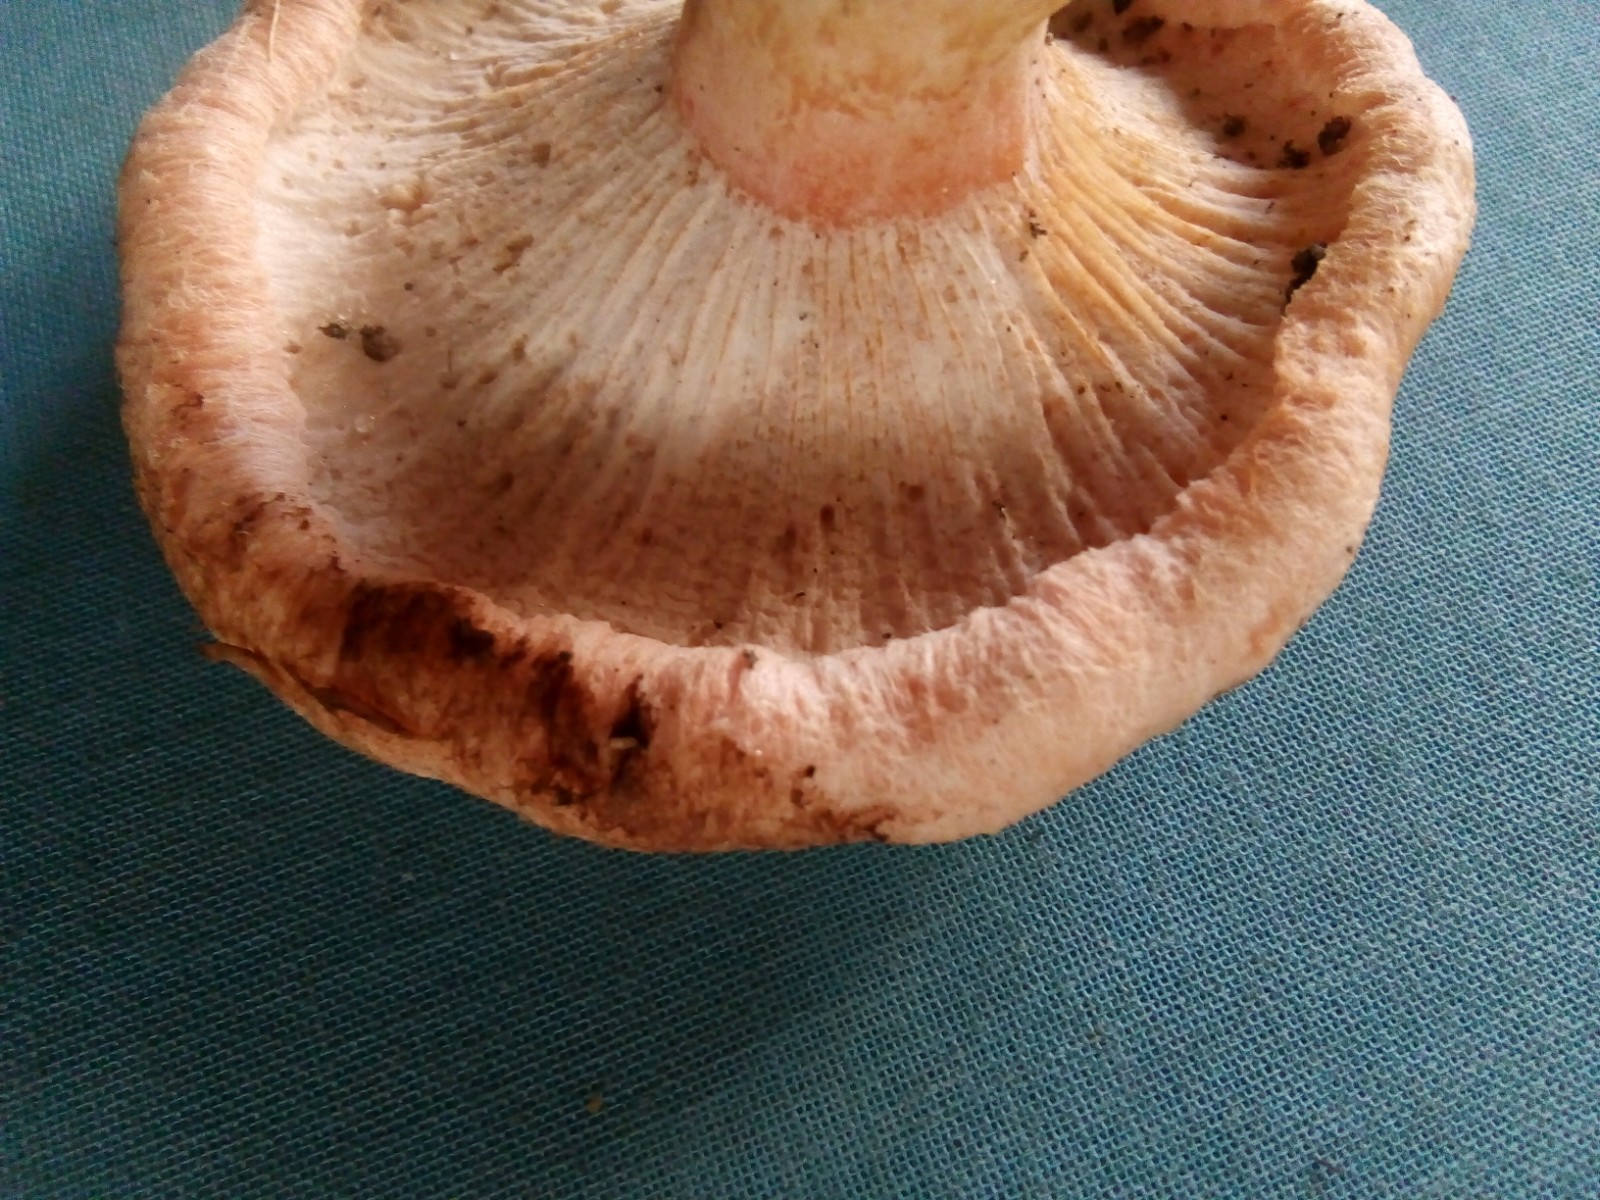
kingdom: Fungi
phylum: Ascomycota
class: Sordariomycetes
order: Hypocreales
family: Hypocreaceae
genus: Hypomyces
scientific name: Hypomyces spadiceus
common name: mælkeskæg-snylteskorpe
